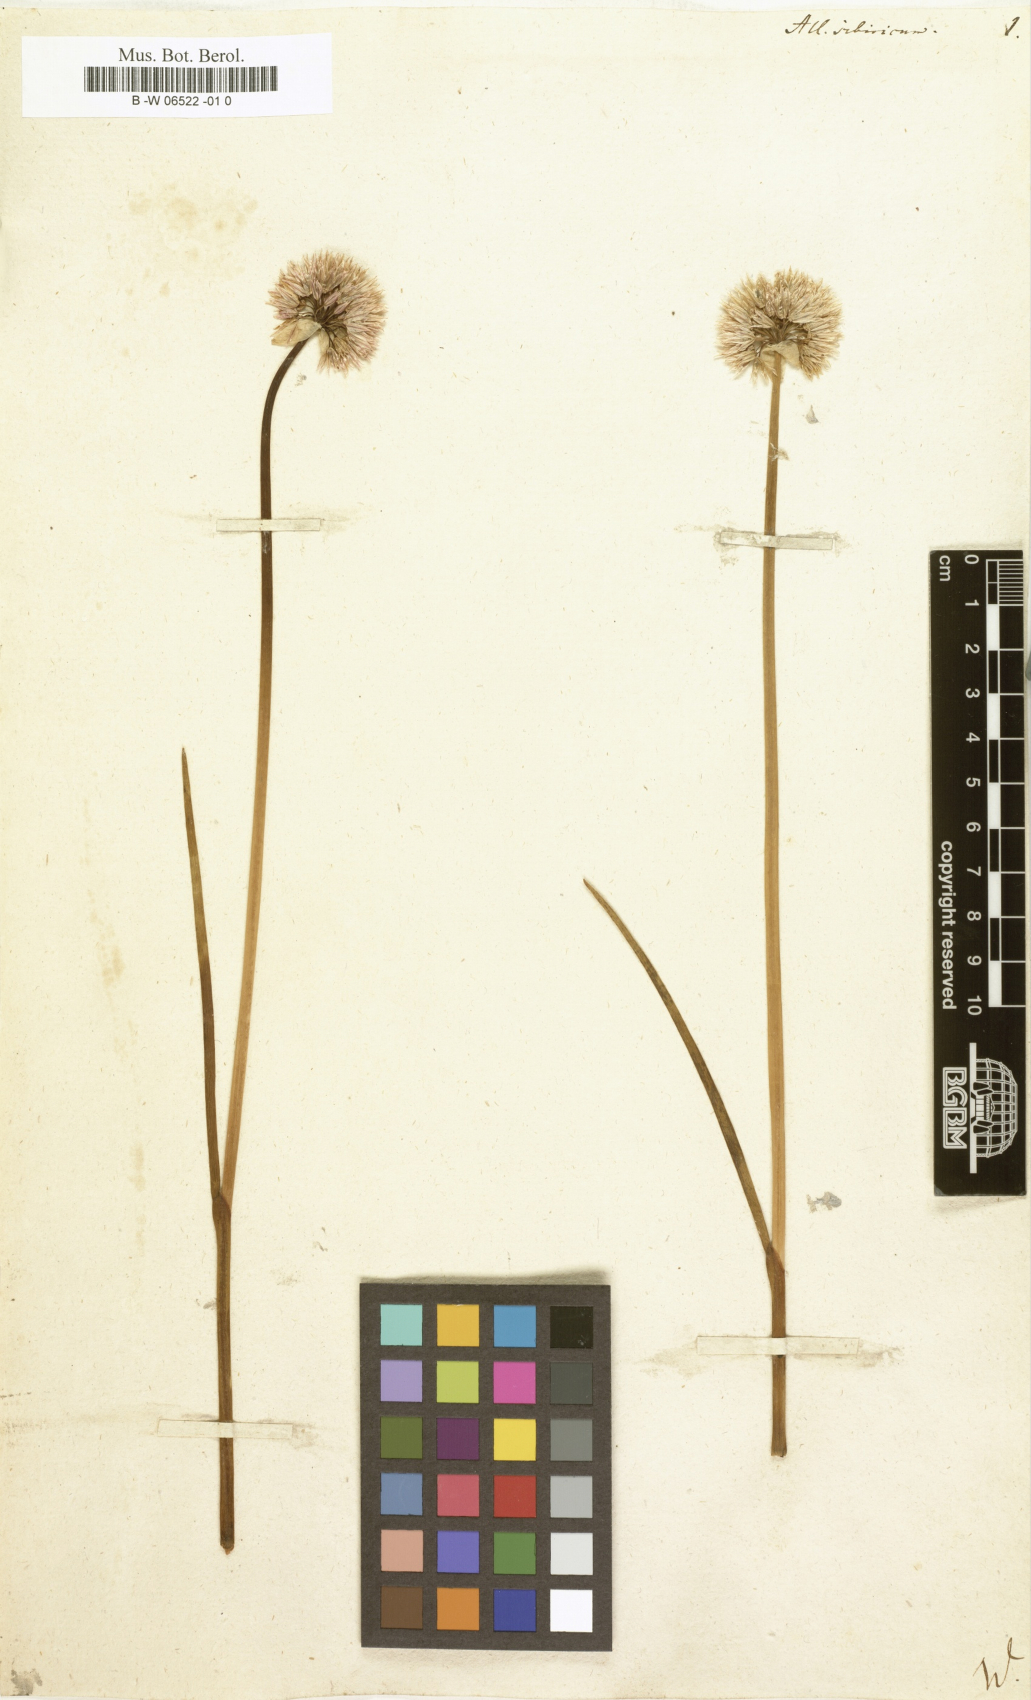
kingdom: Plantae
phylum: Tracheophyta
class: Liliopsida
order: Asparagales
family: Amaryllidaceae
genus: Allium
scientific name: Allium schoenoprasum
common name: Chives
